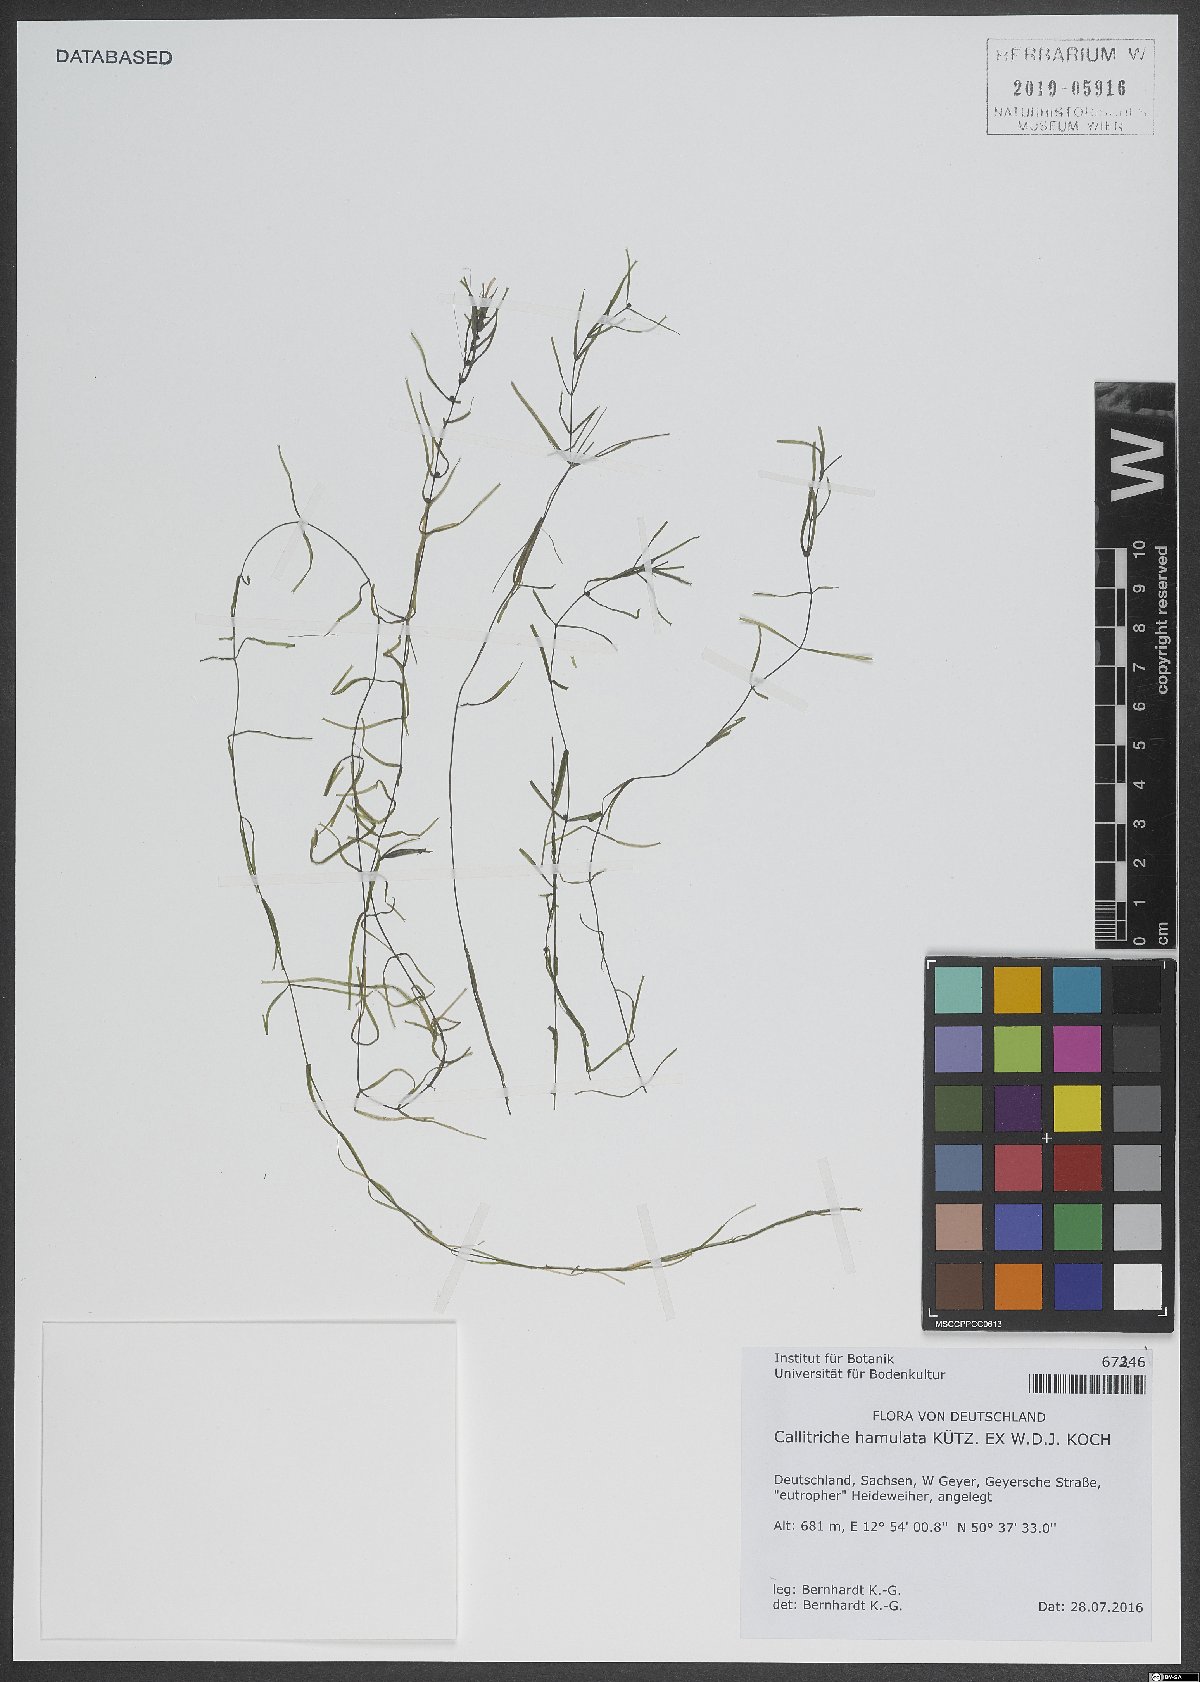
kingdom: Plantae
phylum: Tracheophyta
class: Magnoliopsida
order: Lamiales
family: Plantaginaceae
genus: Callitriche
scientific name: Callitriche hamulata
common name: Intermediate water-starwort
